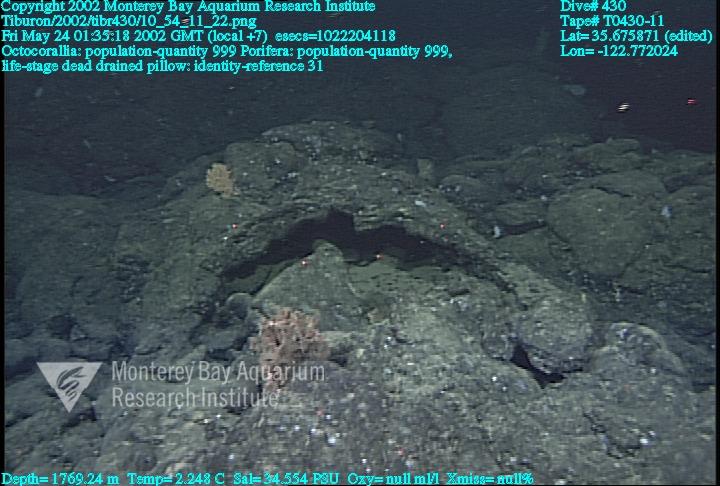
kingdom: Animalia
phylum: Porifera
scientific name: Porifera
